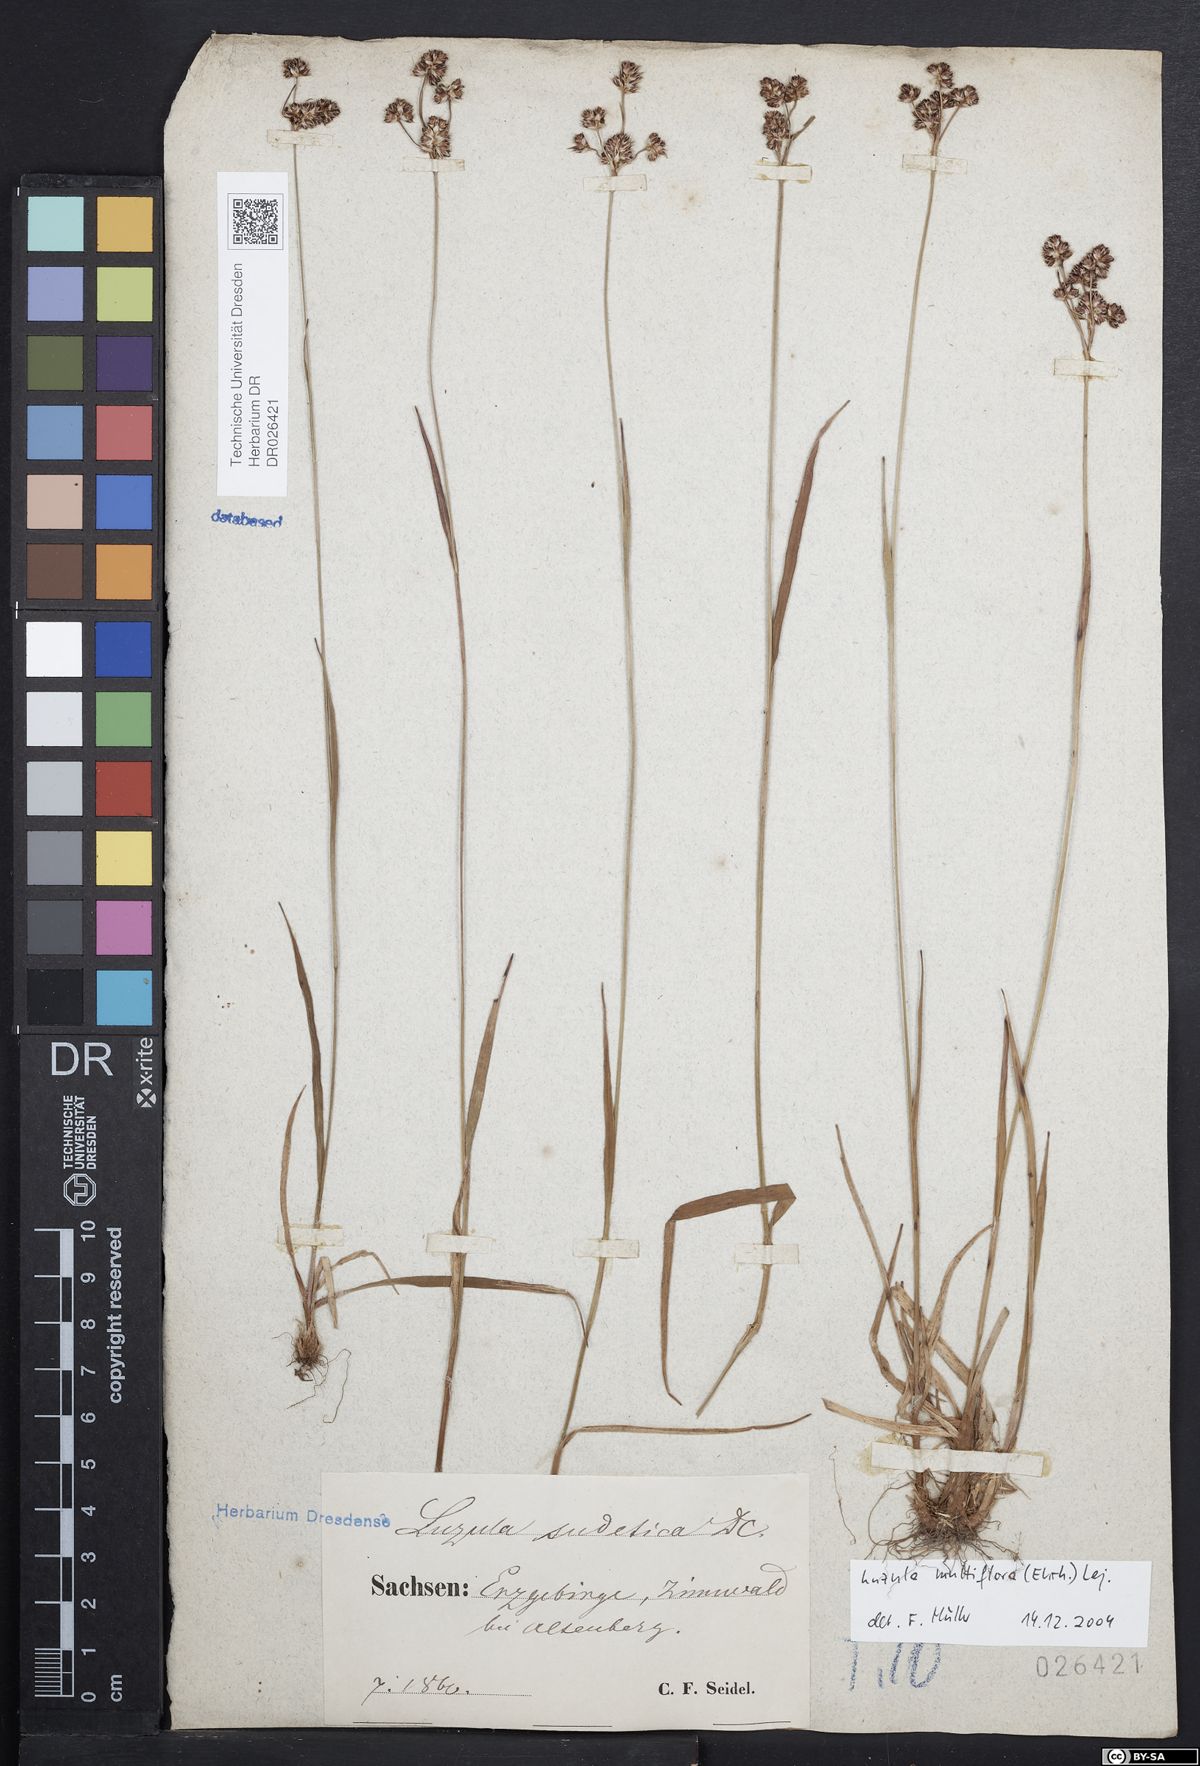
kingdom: Plantae
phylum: Tracheophyta
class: Liliopsida
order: Poales
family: Juncaceae
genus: Luzula
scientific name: Luzula multiflora
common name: Heath wood-rush
